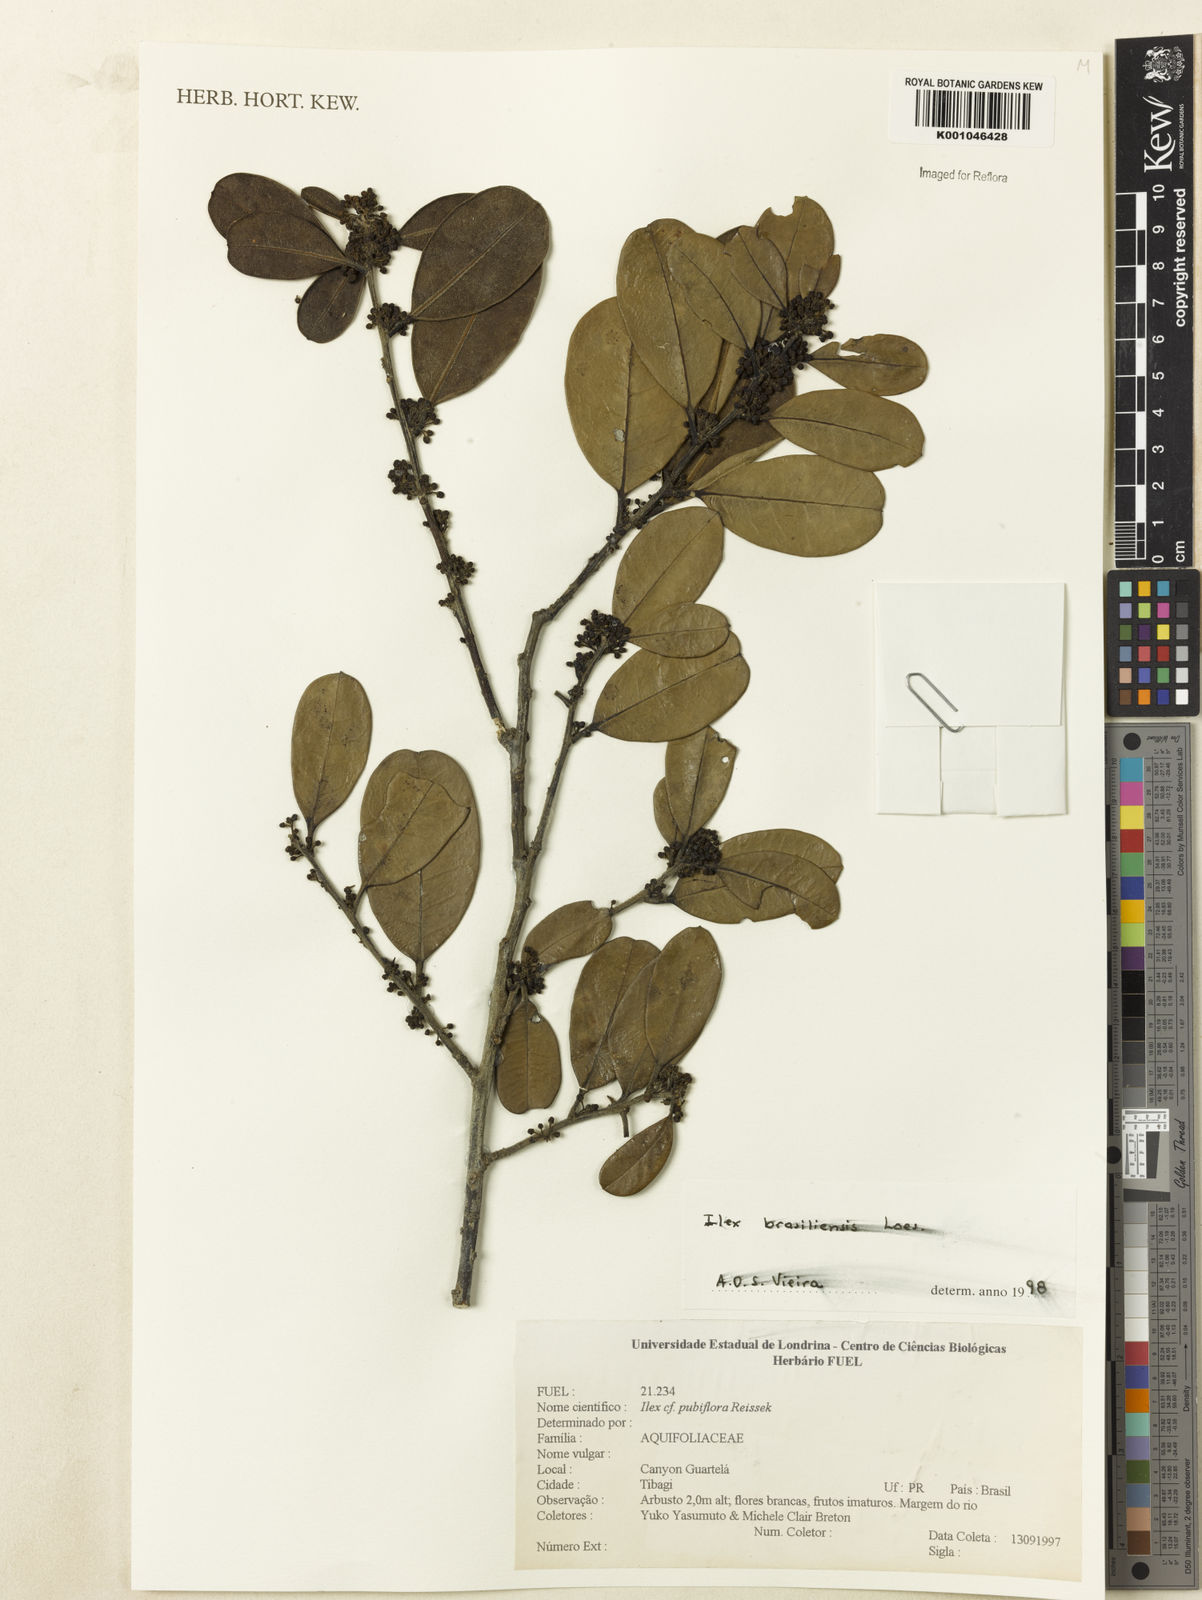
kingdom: Plantae
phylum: Tracheophyta
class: Magnoliopsida
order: Aquifoliales
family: Aquifoliaceae
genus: Ilex
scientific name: Ilex brasiliensis
